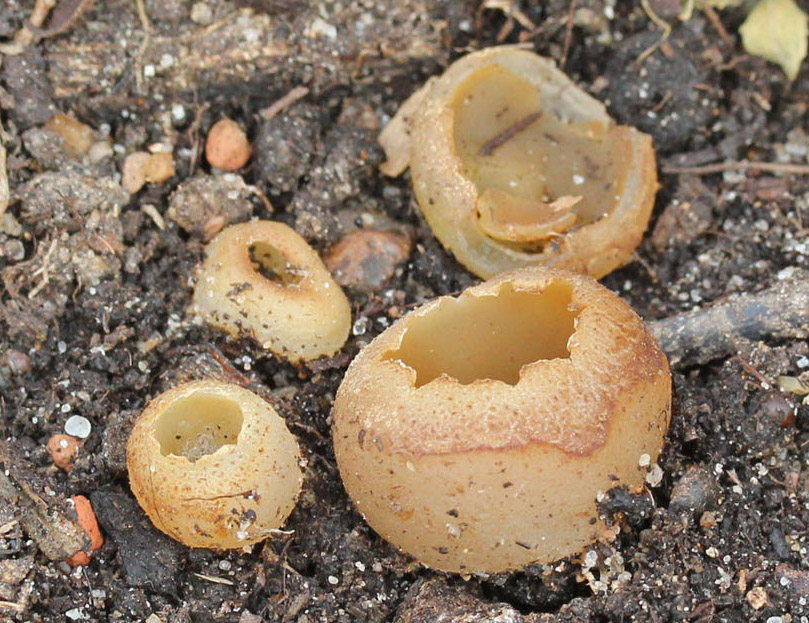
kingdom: Fungi
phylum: Ascomycota
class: Pezizomycetes
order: Pezizales
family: Pezizaceae
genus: Peziza
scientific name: Peziza
